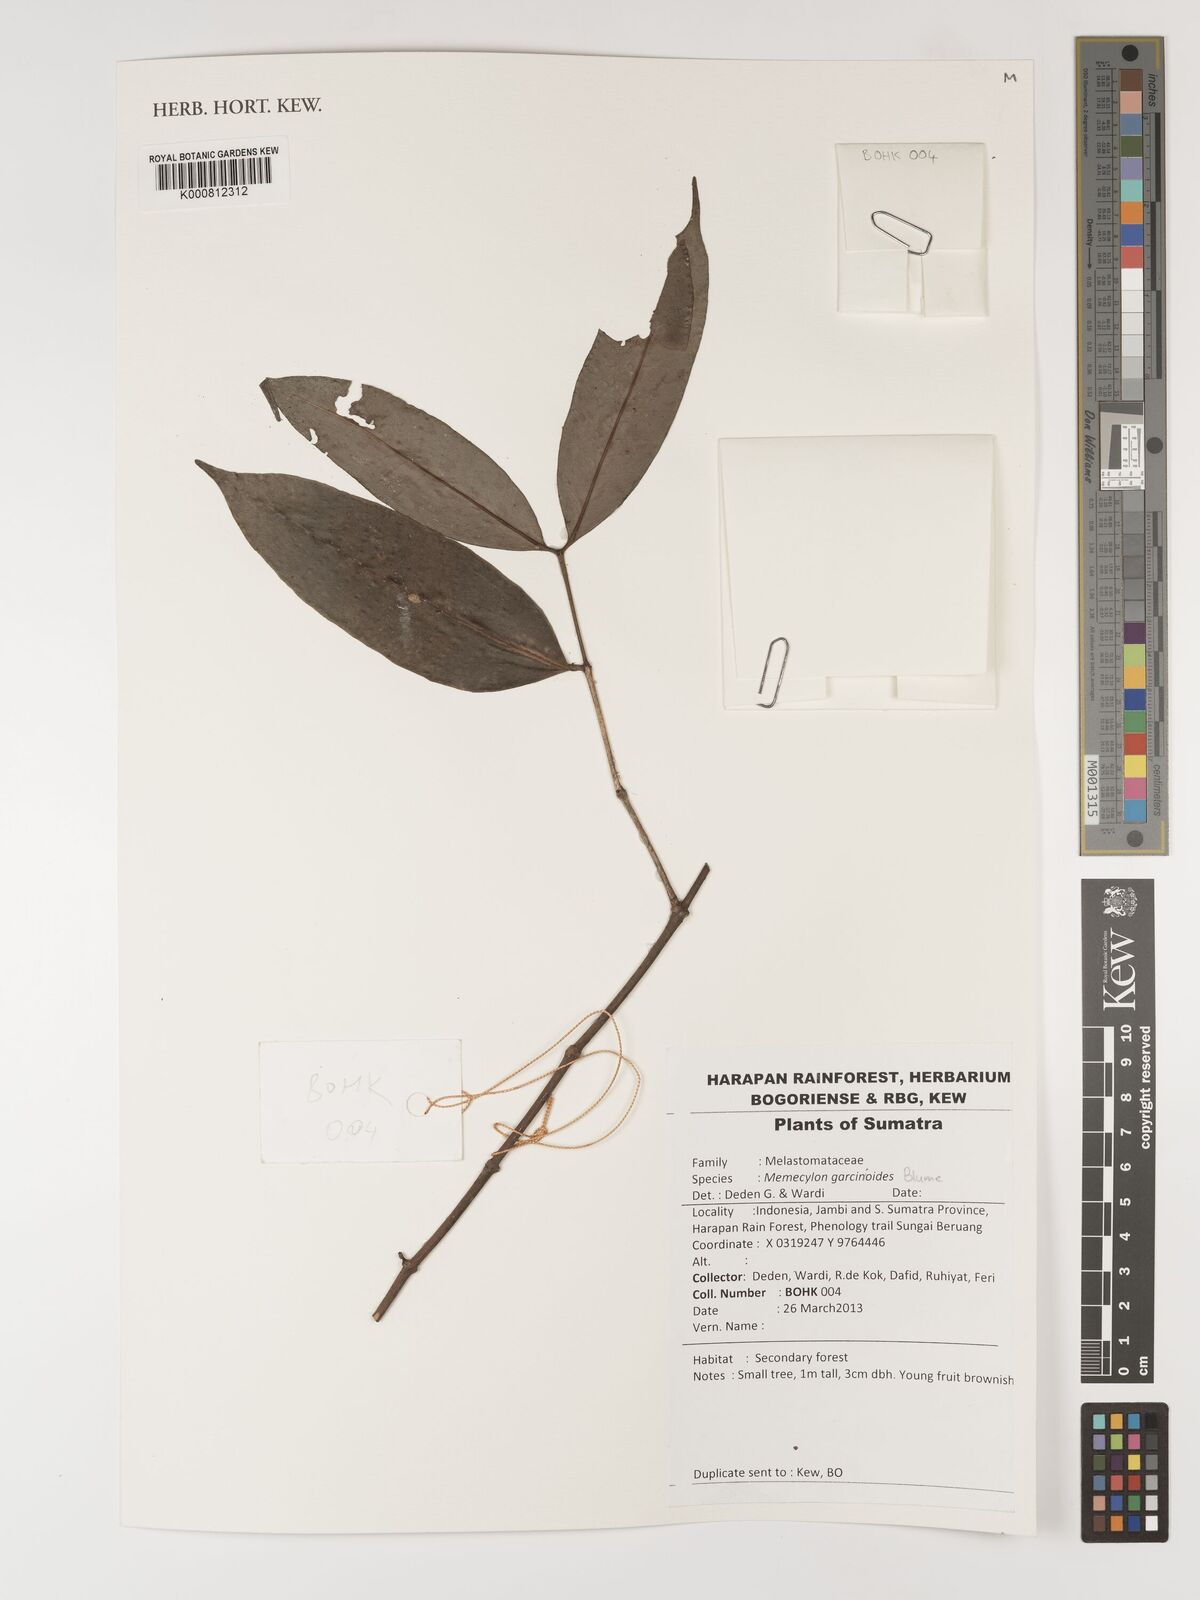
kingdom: Plantae
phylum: Tracheophyta
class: Magnoliopsida
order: Myrtales
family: Melastomataceae
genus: Memecylon
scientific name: Memecylon garcinioides
